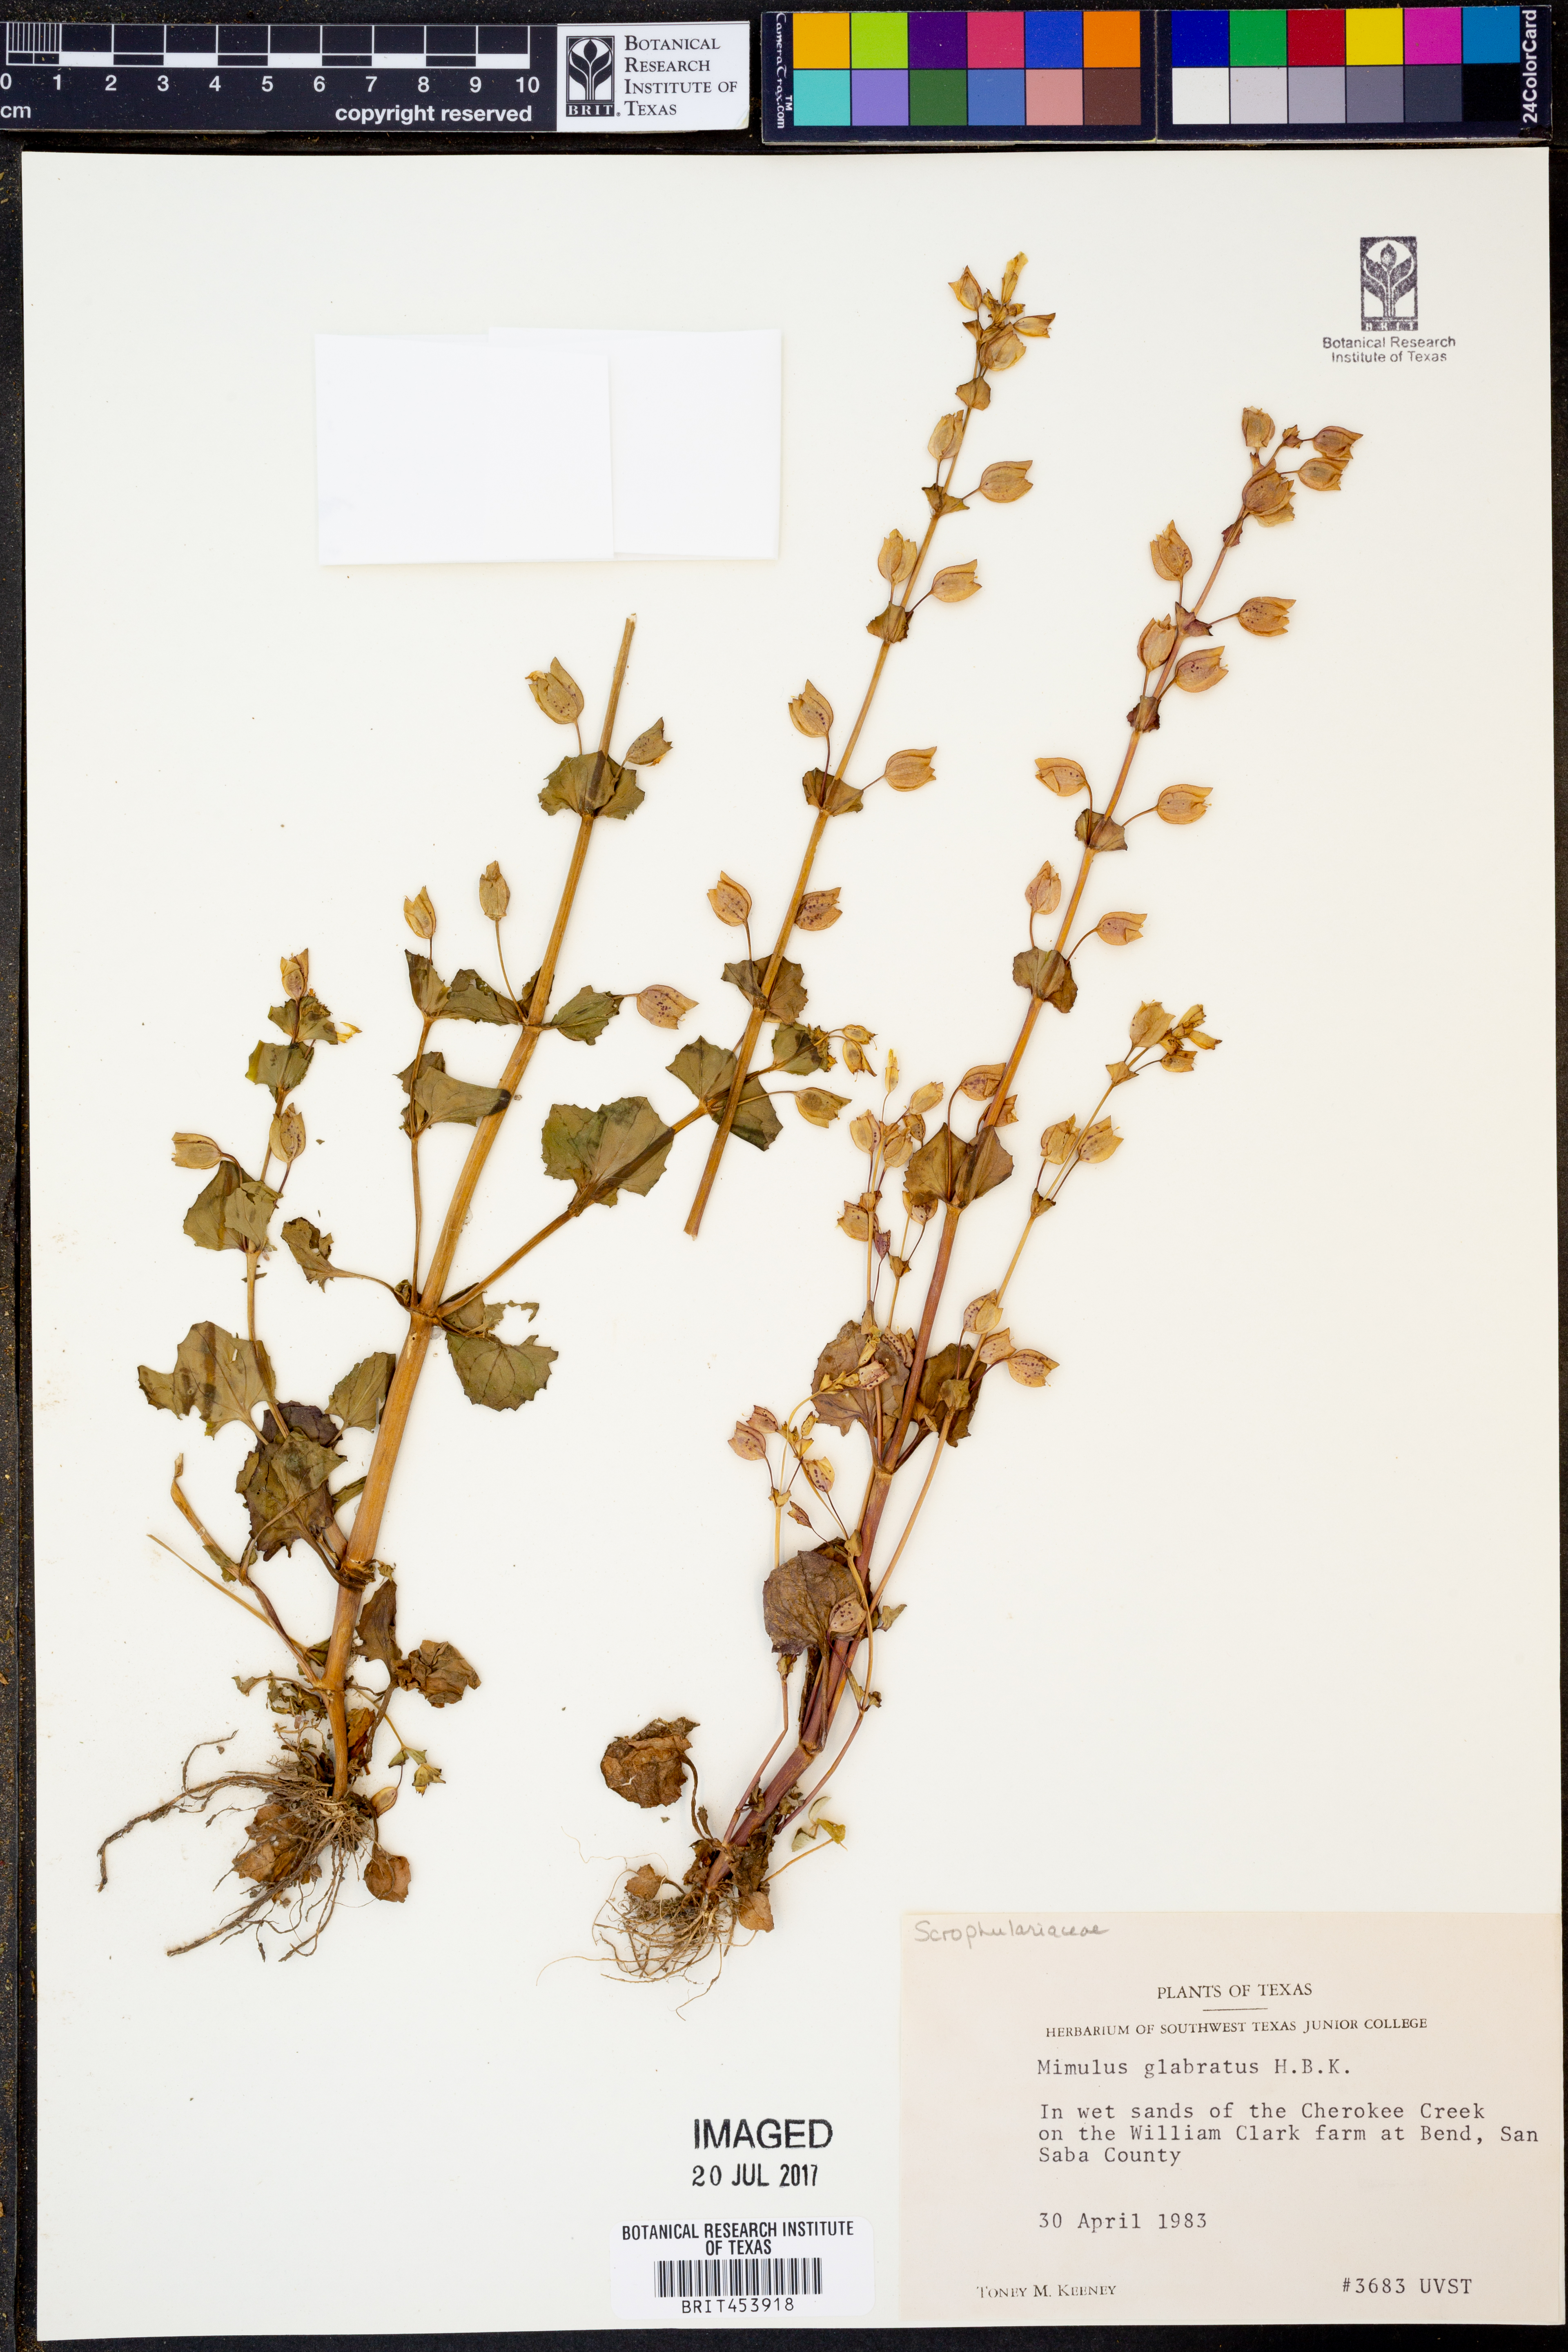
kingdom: Plantae
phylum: Tracheophyta
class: Magnoliopsida
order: Lamiales
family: Phrymaceae
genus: Erythranthe
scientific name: Erythranthe glabrata
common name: Round-leaved monkeyflower
